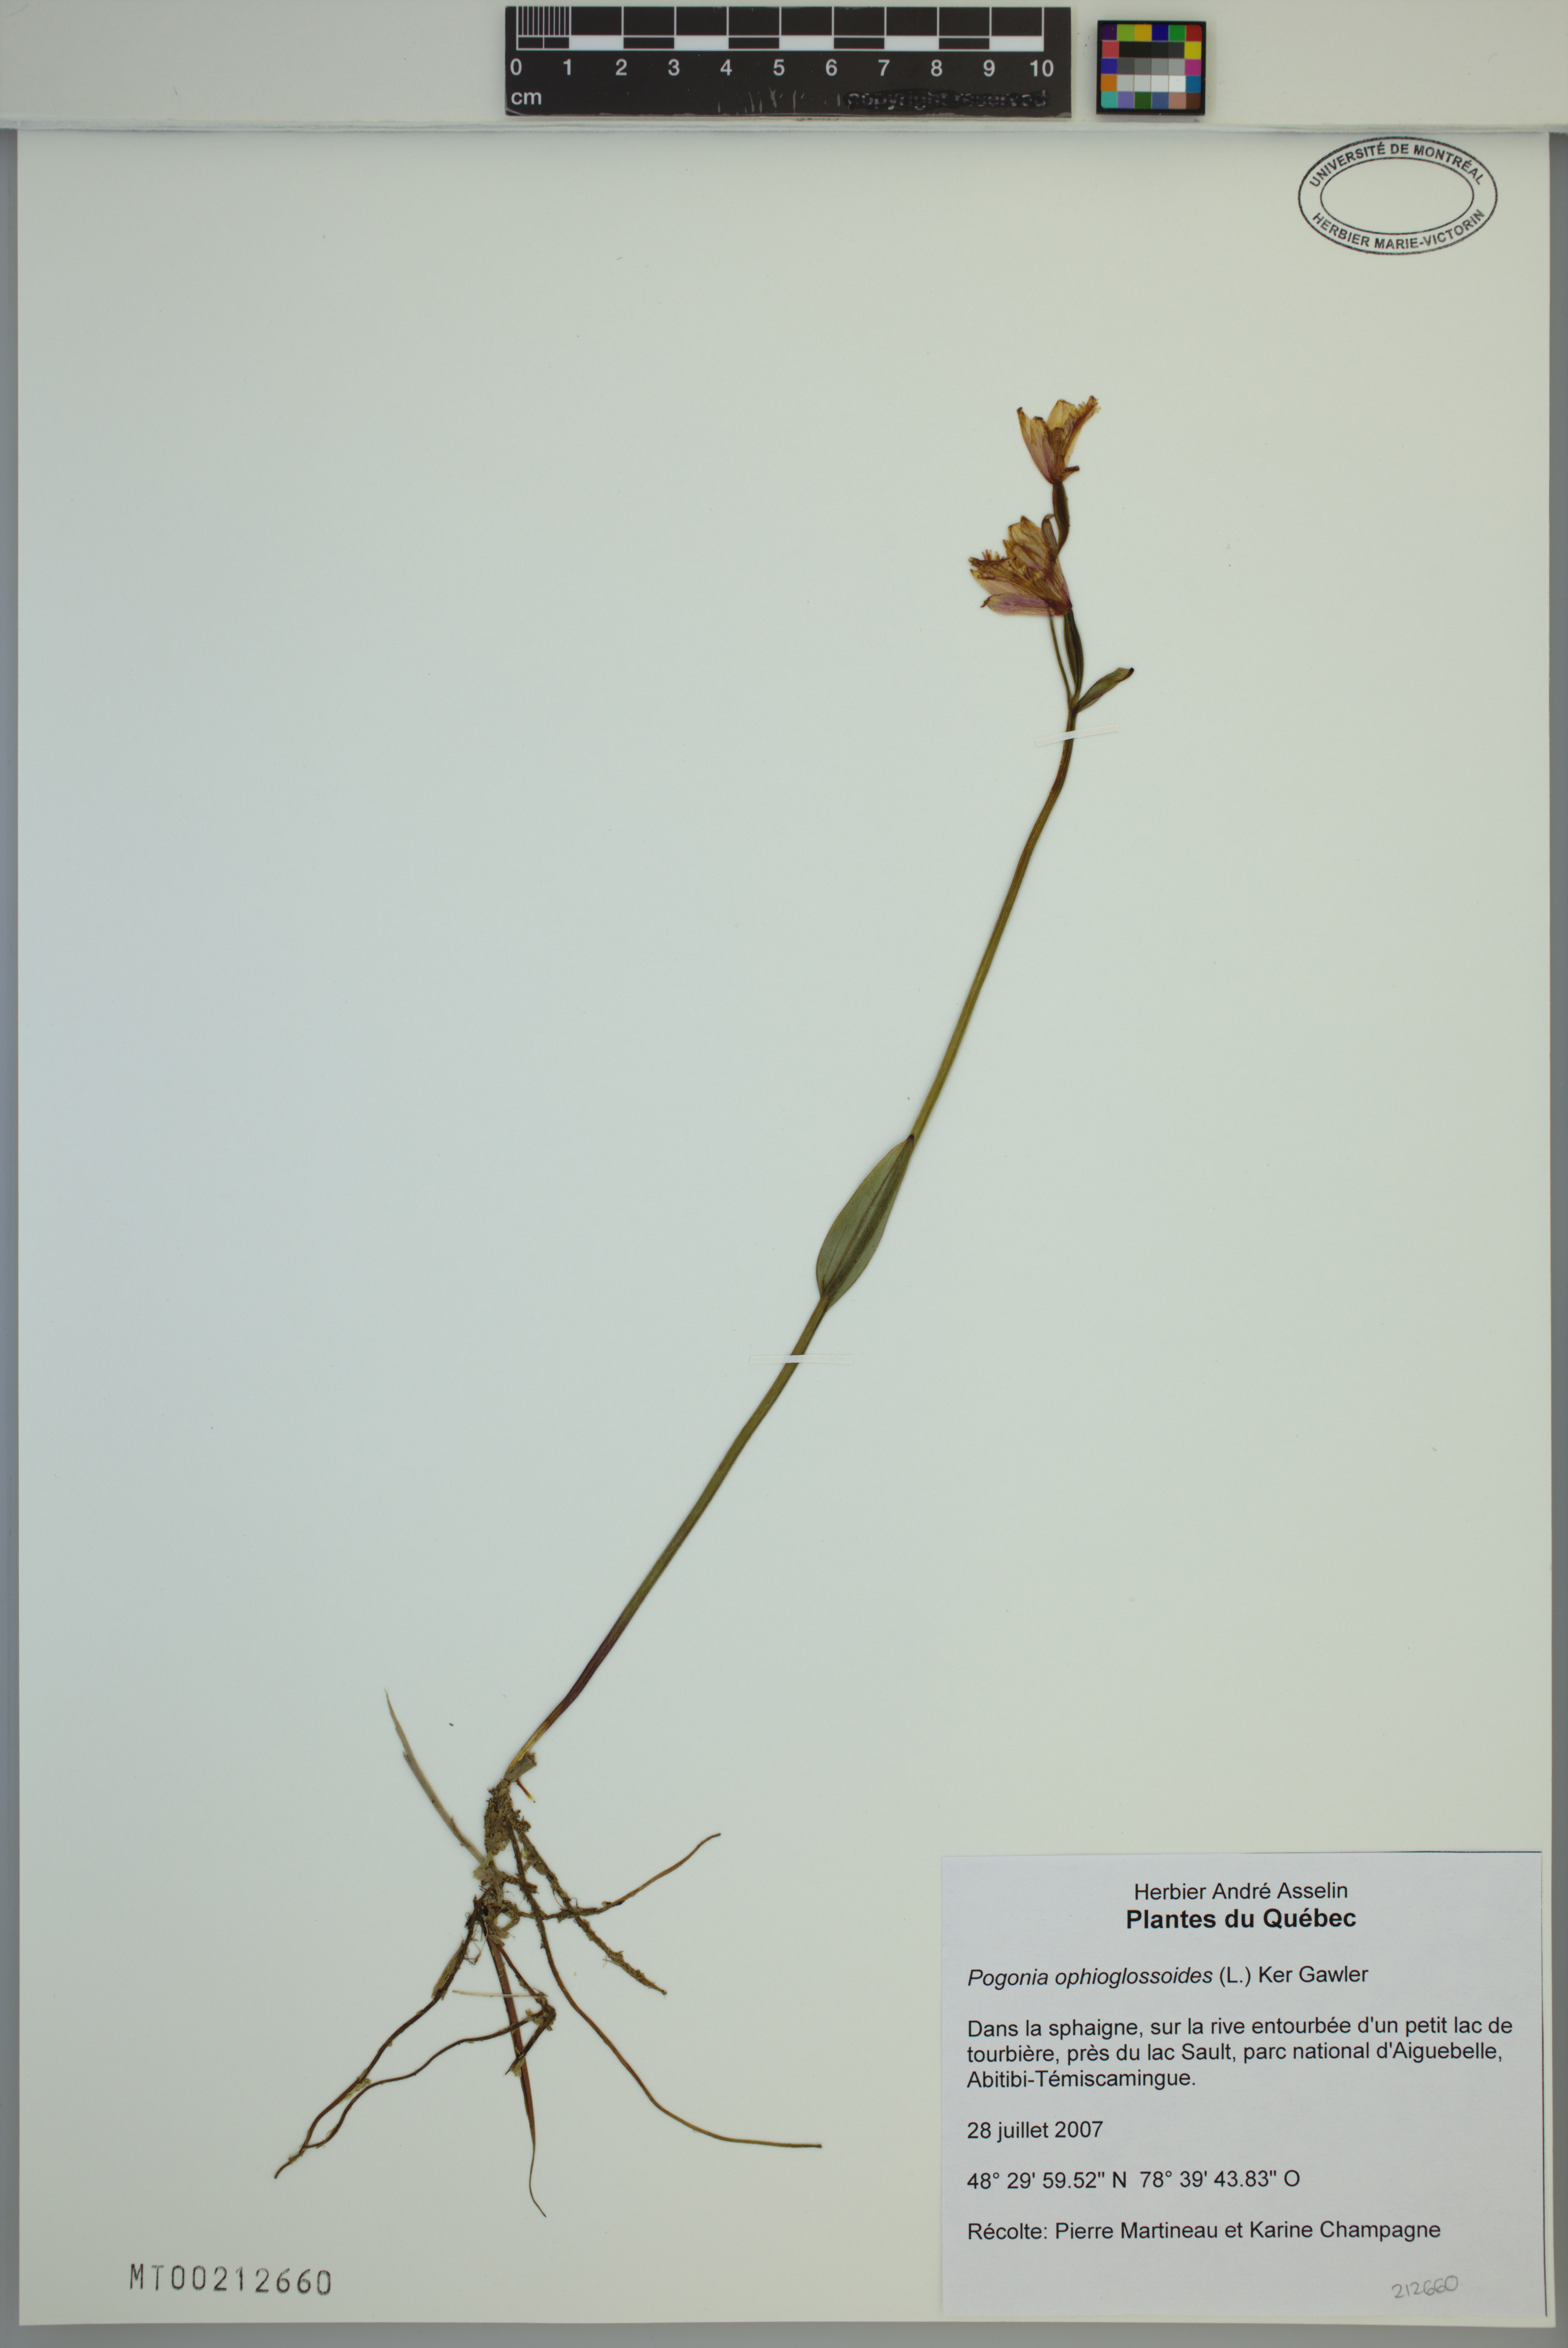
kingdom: Plantae
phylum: Tracheophyta
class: Liliopsida
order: Asparagales
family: Orchidaceae
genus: Pogonia
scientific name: Pogonia ophioglossoides
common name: Rose pogonia
